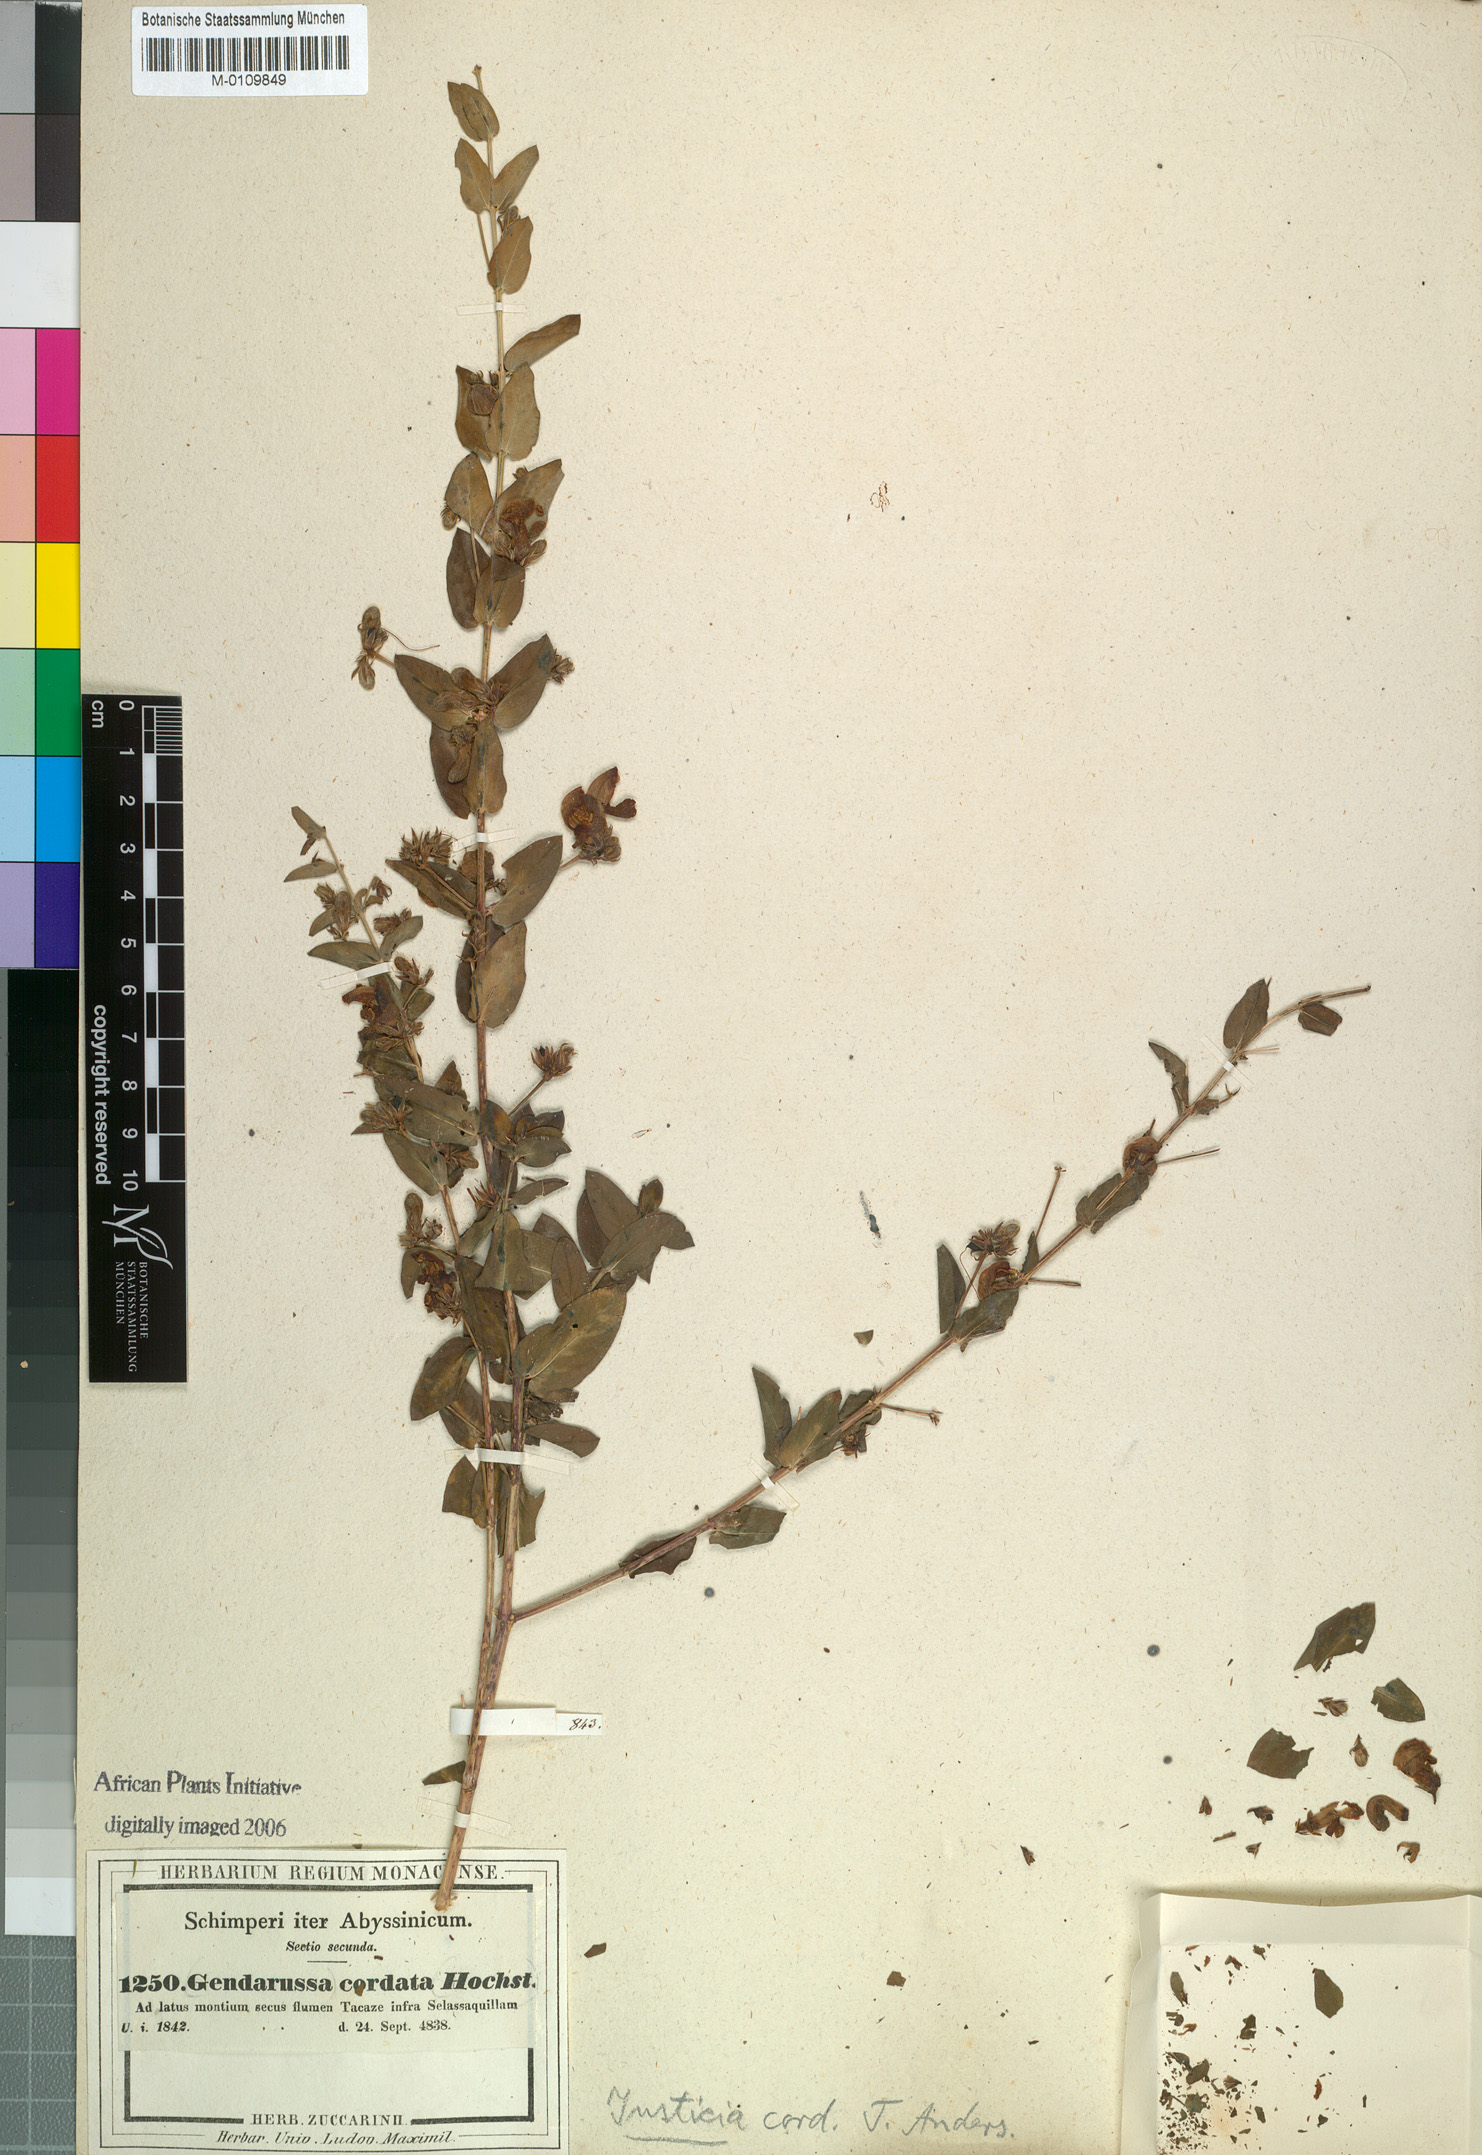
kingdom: Plantae
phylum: Tracheophyta
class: Magnoliopsida
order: Lamiales
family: Acanthaceae
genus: Justicia
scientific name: Justicia cordata
